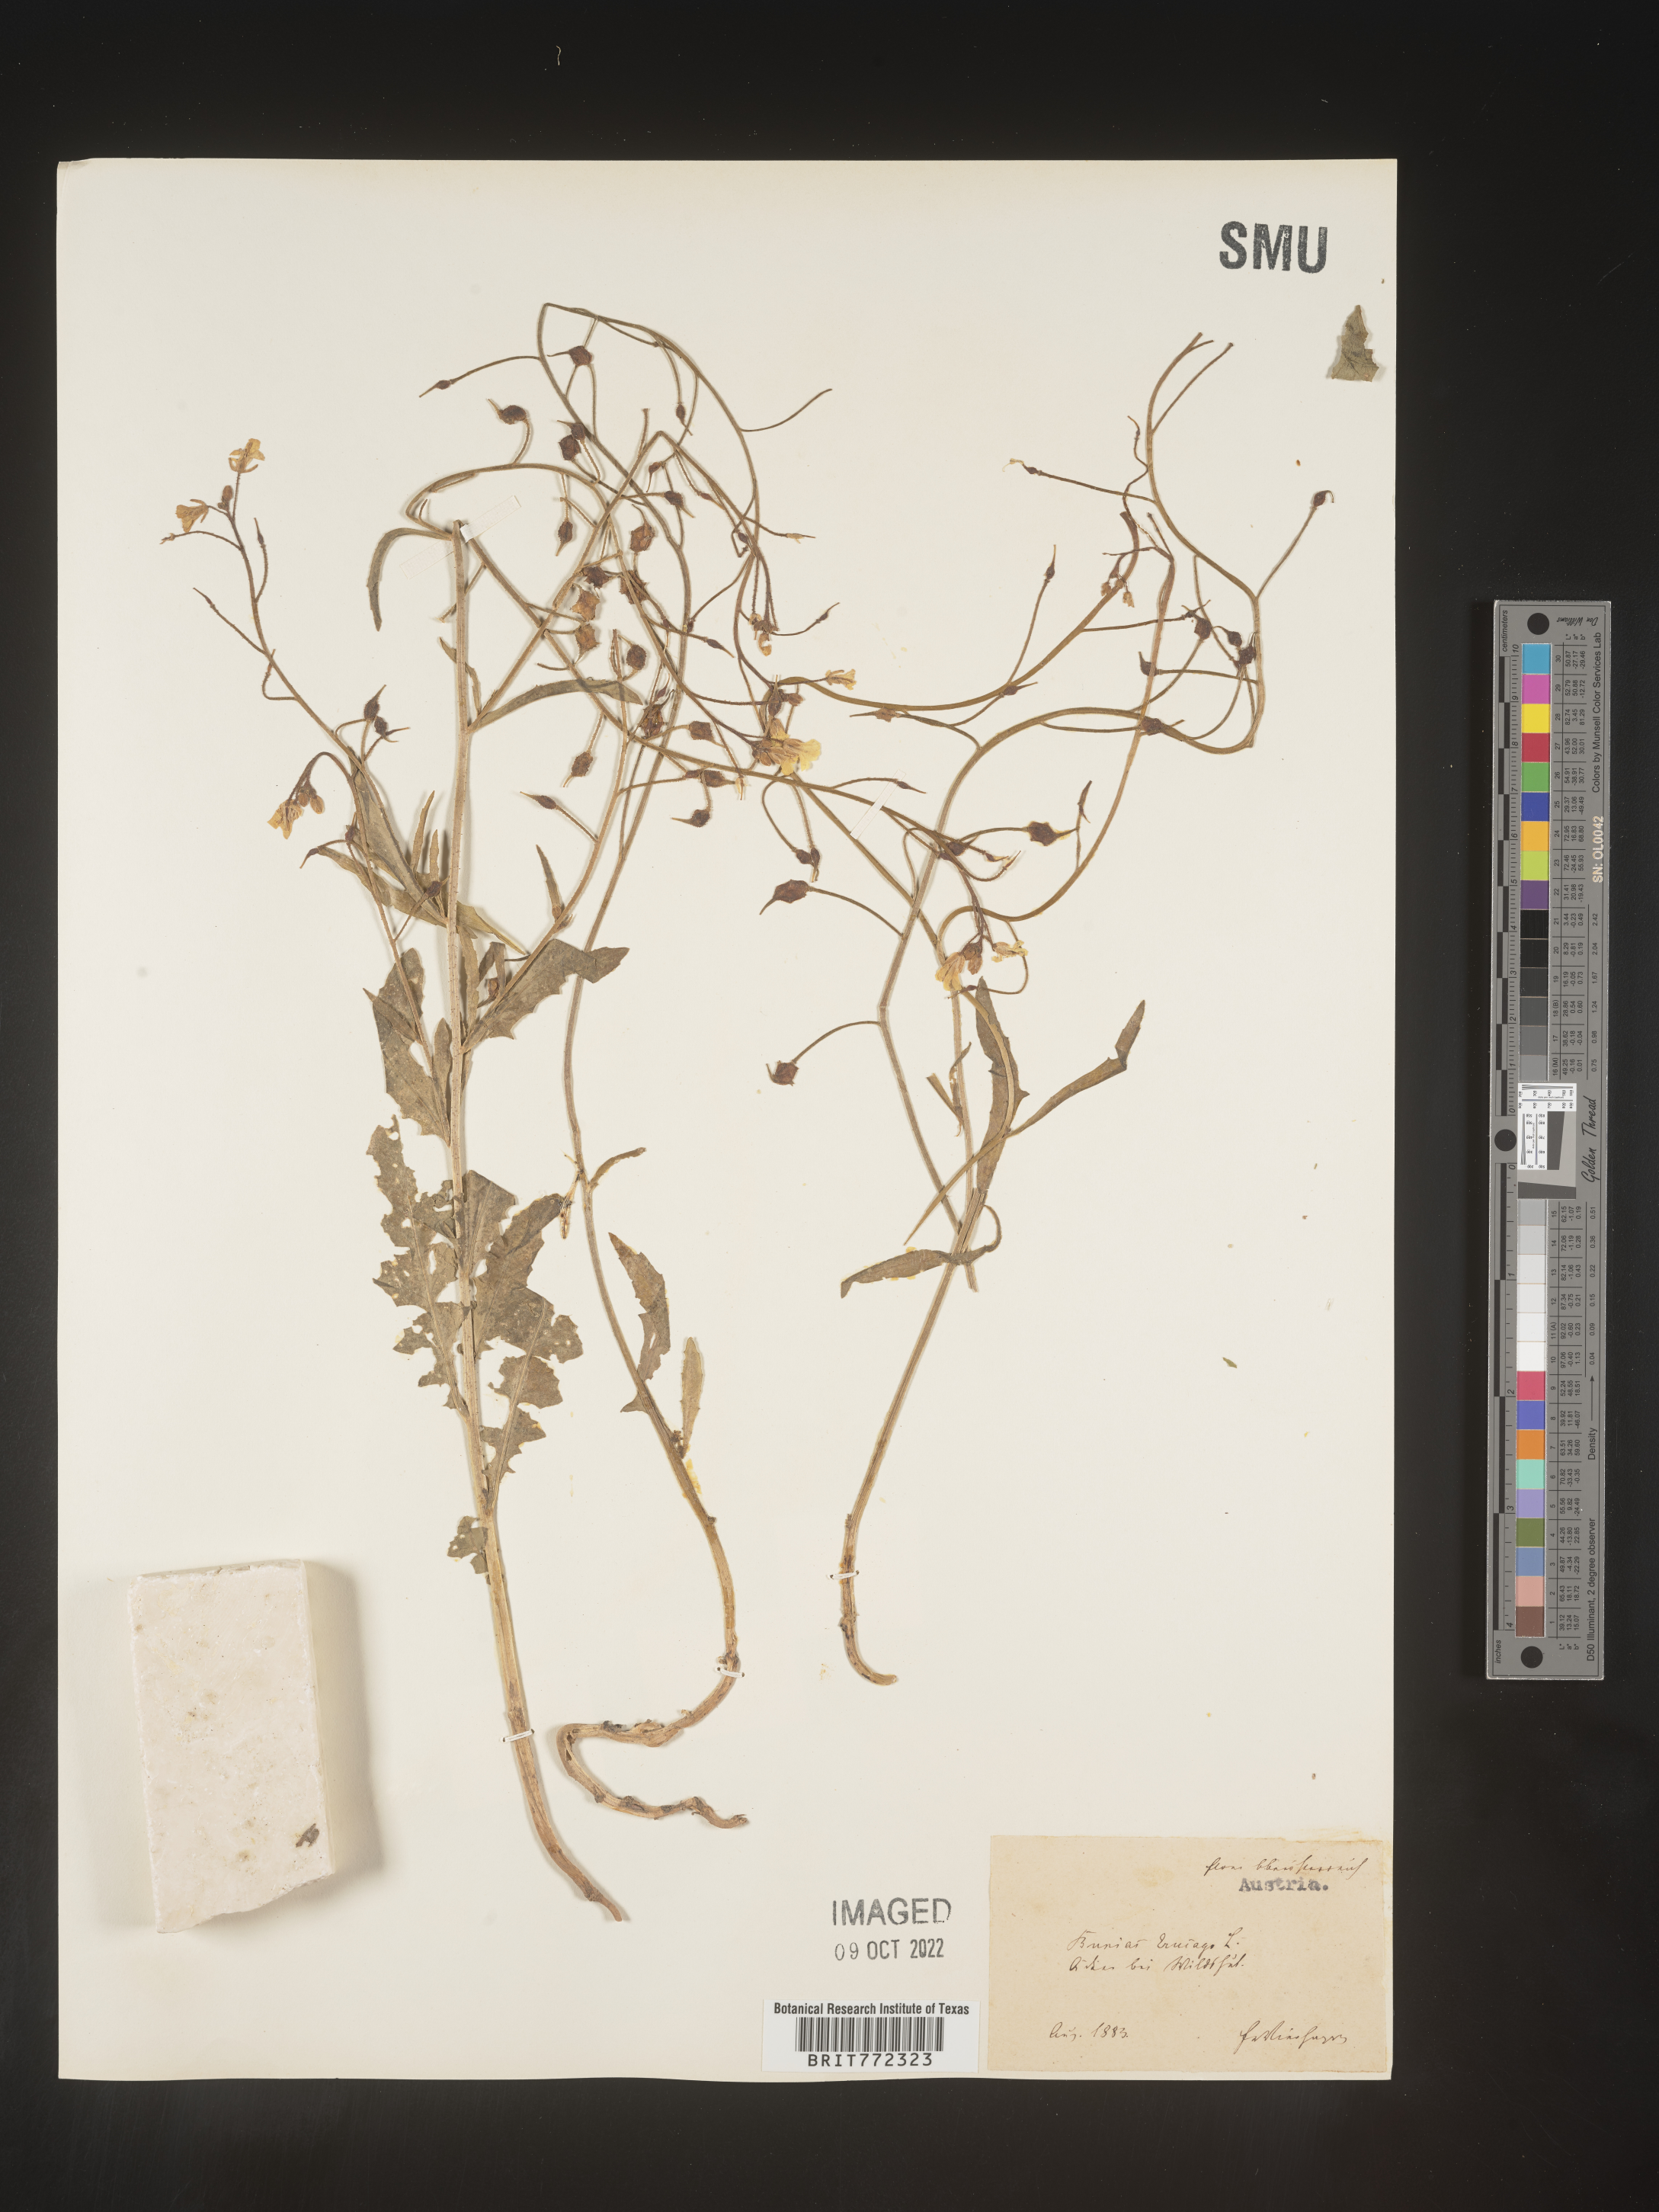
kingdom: Plantae
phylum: Tracheophyta
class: Magnoliopsida
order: Brassicales
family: Brassicaceae
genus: Bunias
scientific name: Bunias
